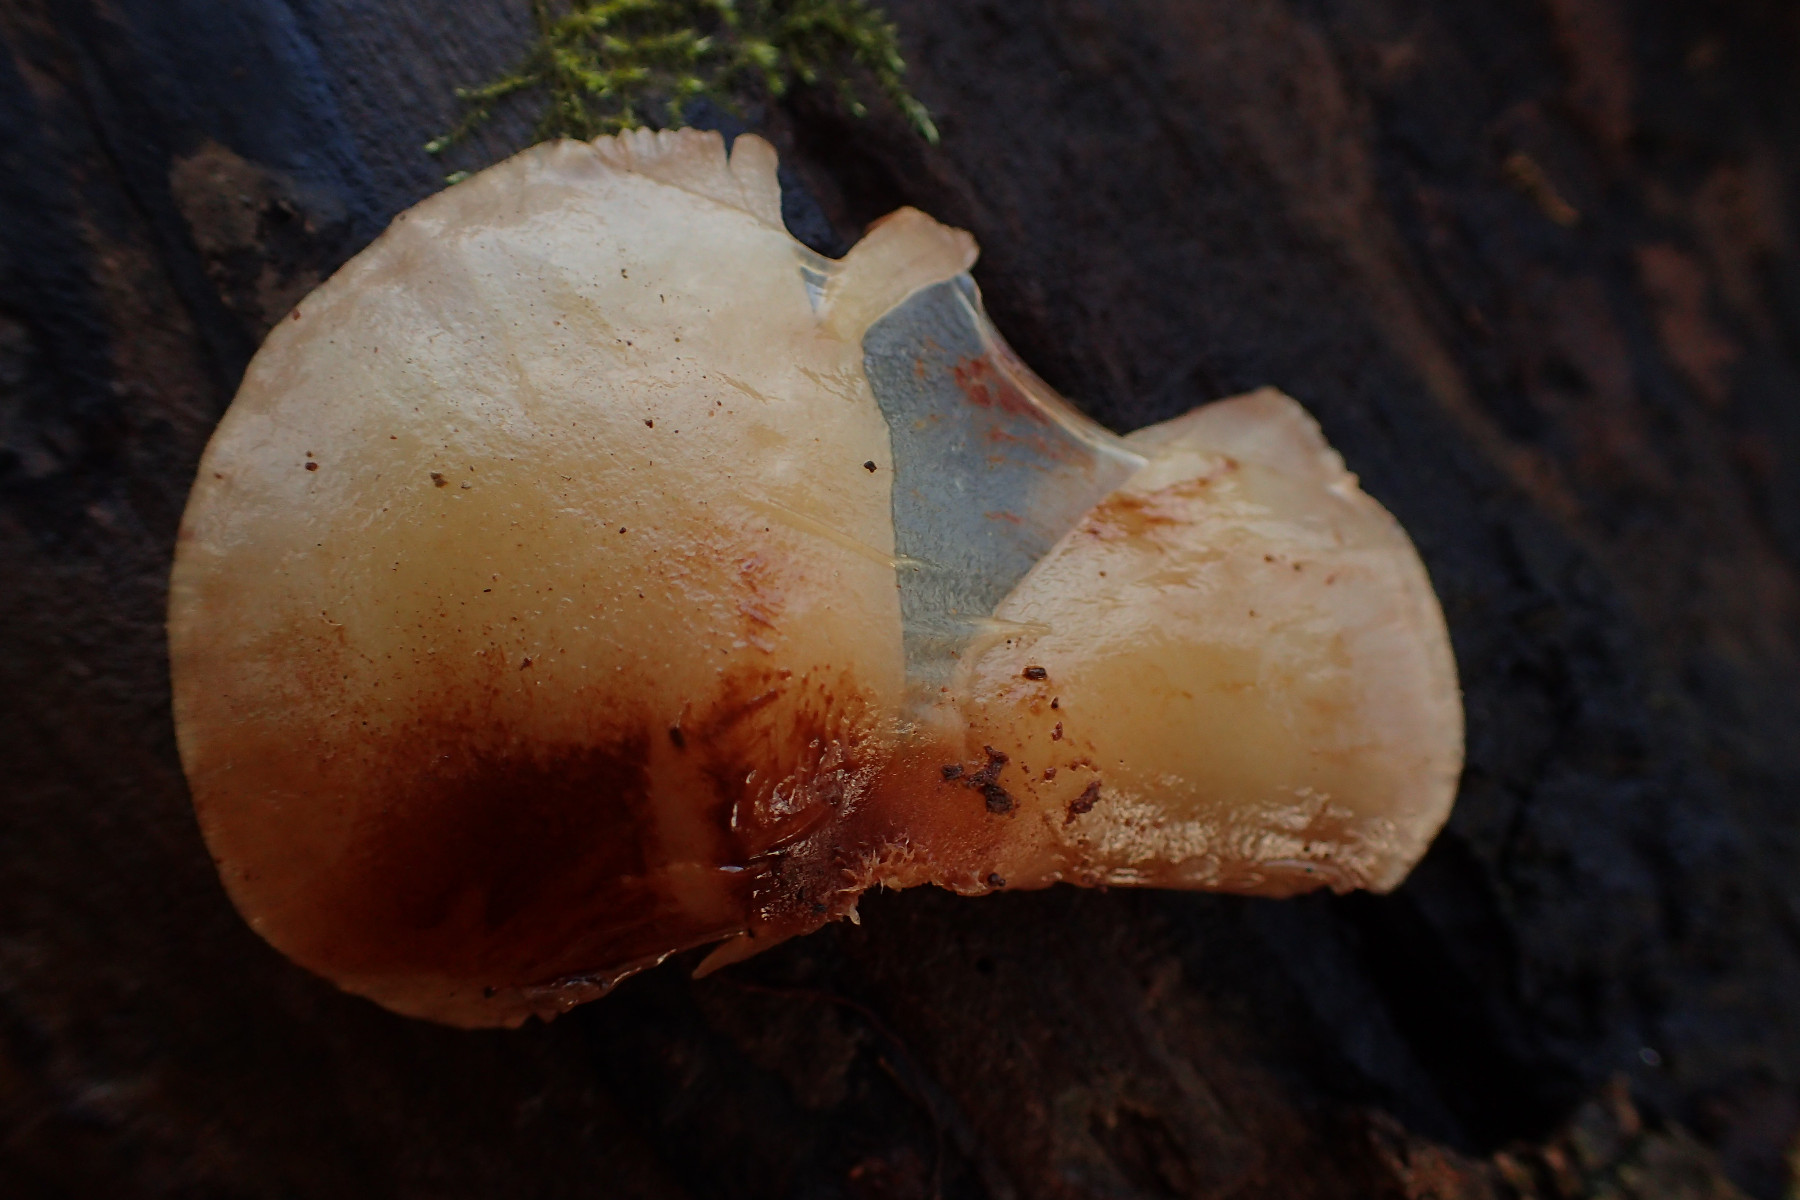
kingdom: Fungi
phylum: Basidiomycota
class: Agaricomycetes
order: Agaricales
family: Crepidotaceae
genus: Crepidotus
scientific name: Crepidotus mollis
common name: blød muslingesvamp
